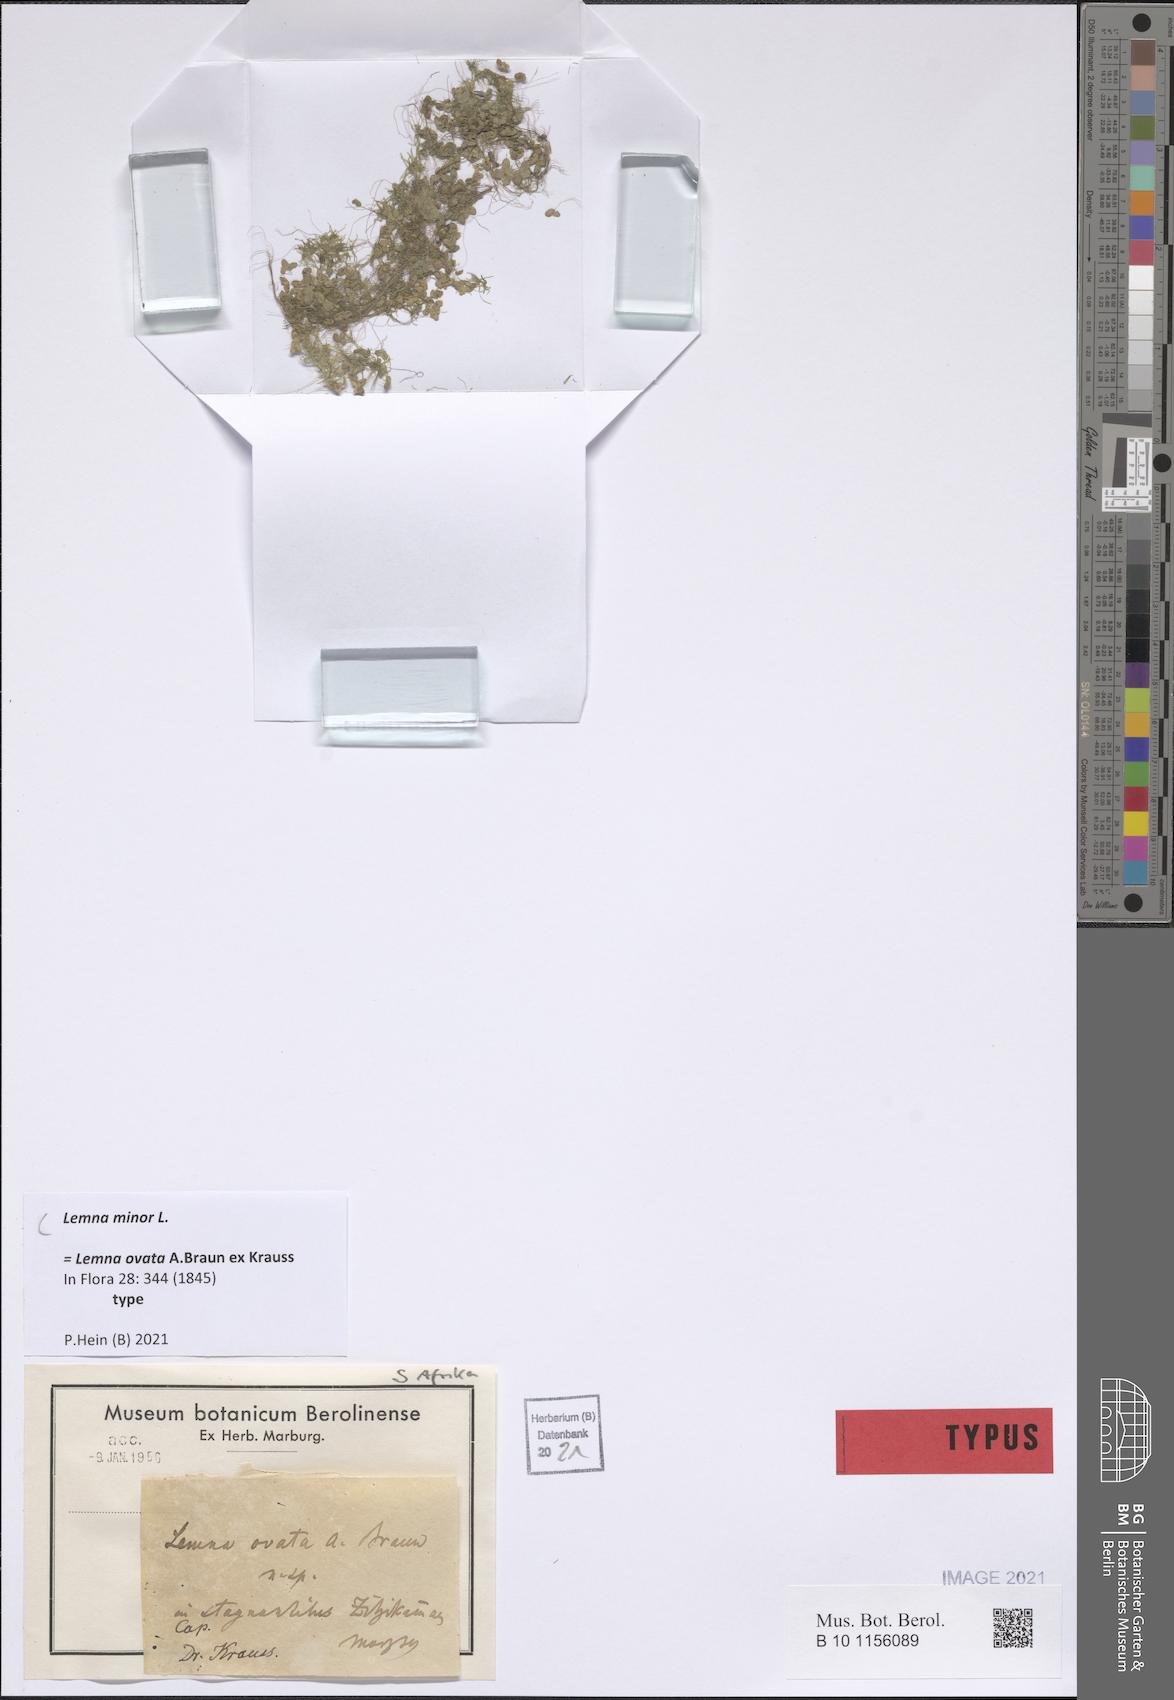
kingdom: Plantae
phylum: Tracheophyta
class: Liliopsida
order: Alismatales
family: Araceae
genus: Lemna
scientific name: Lemna minor
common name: Common duckweed
